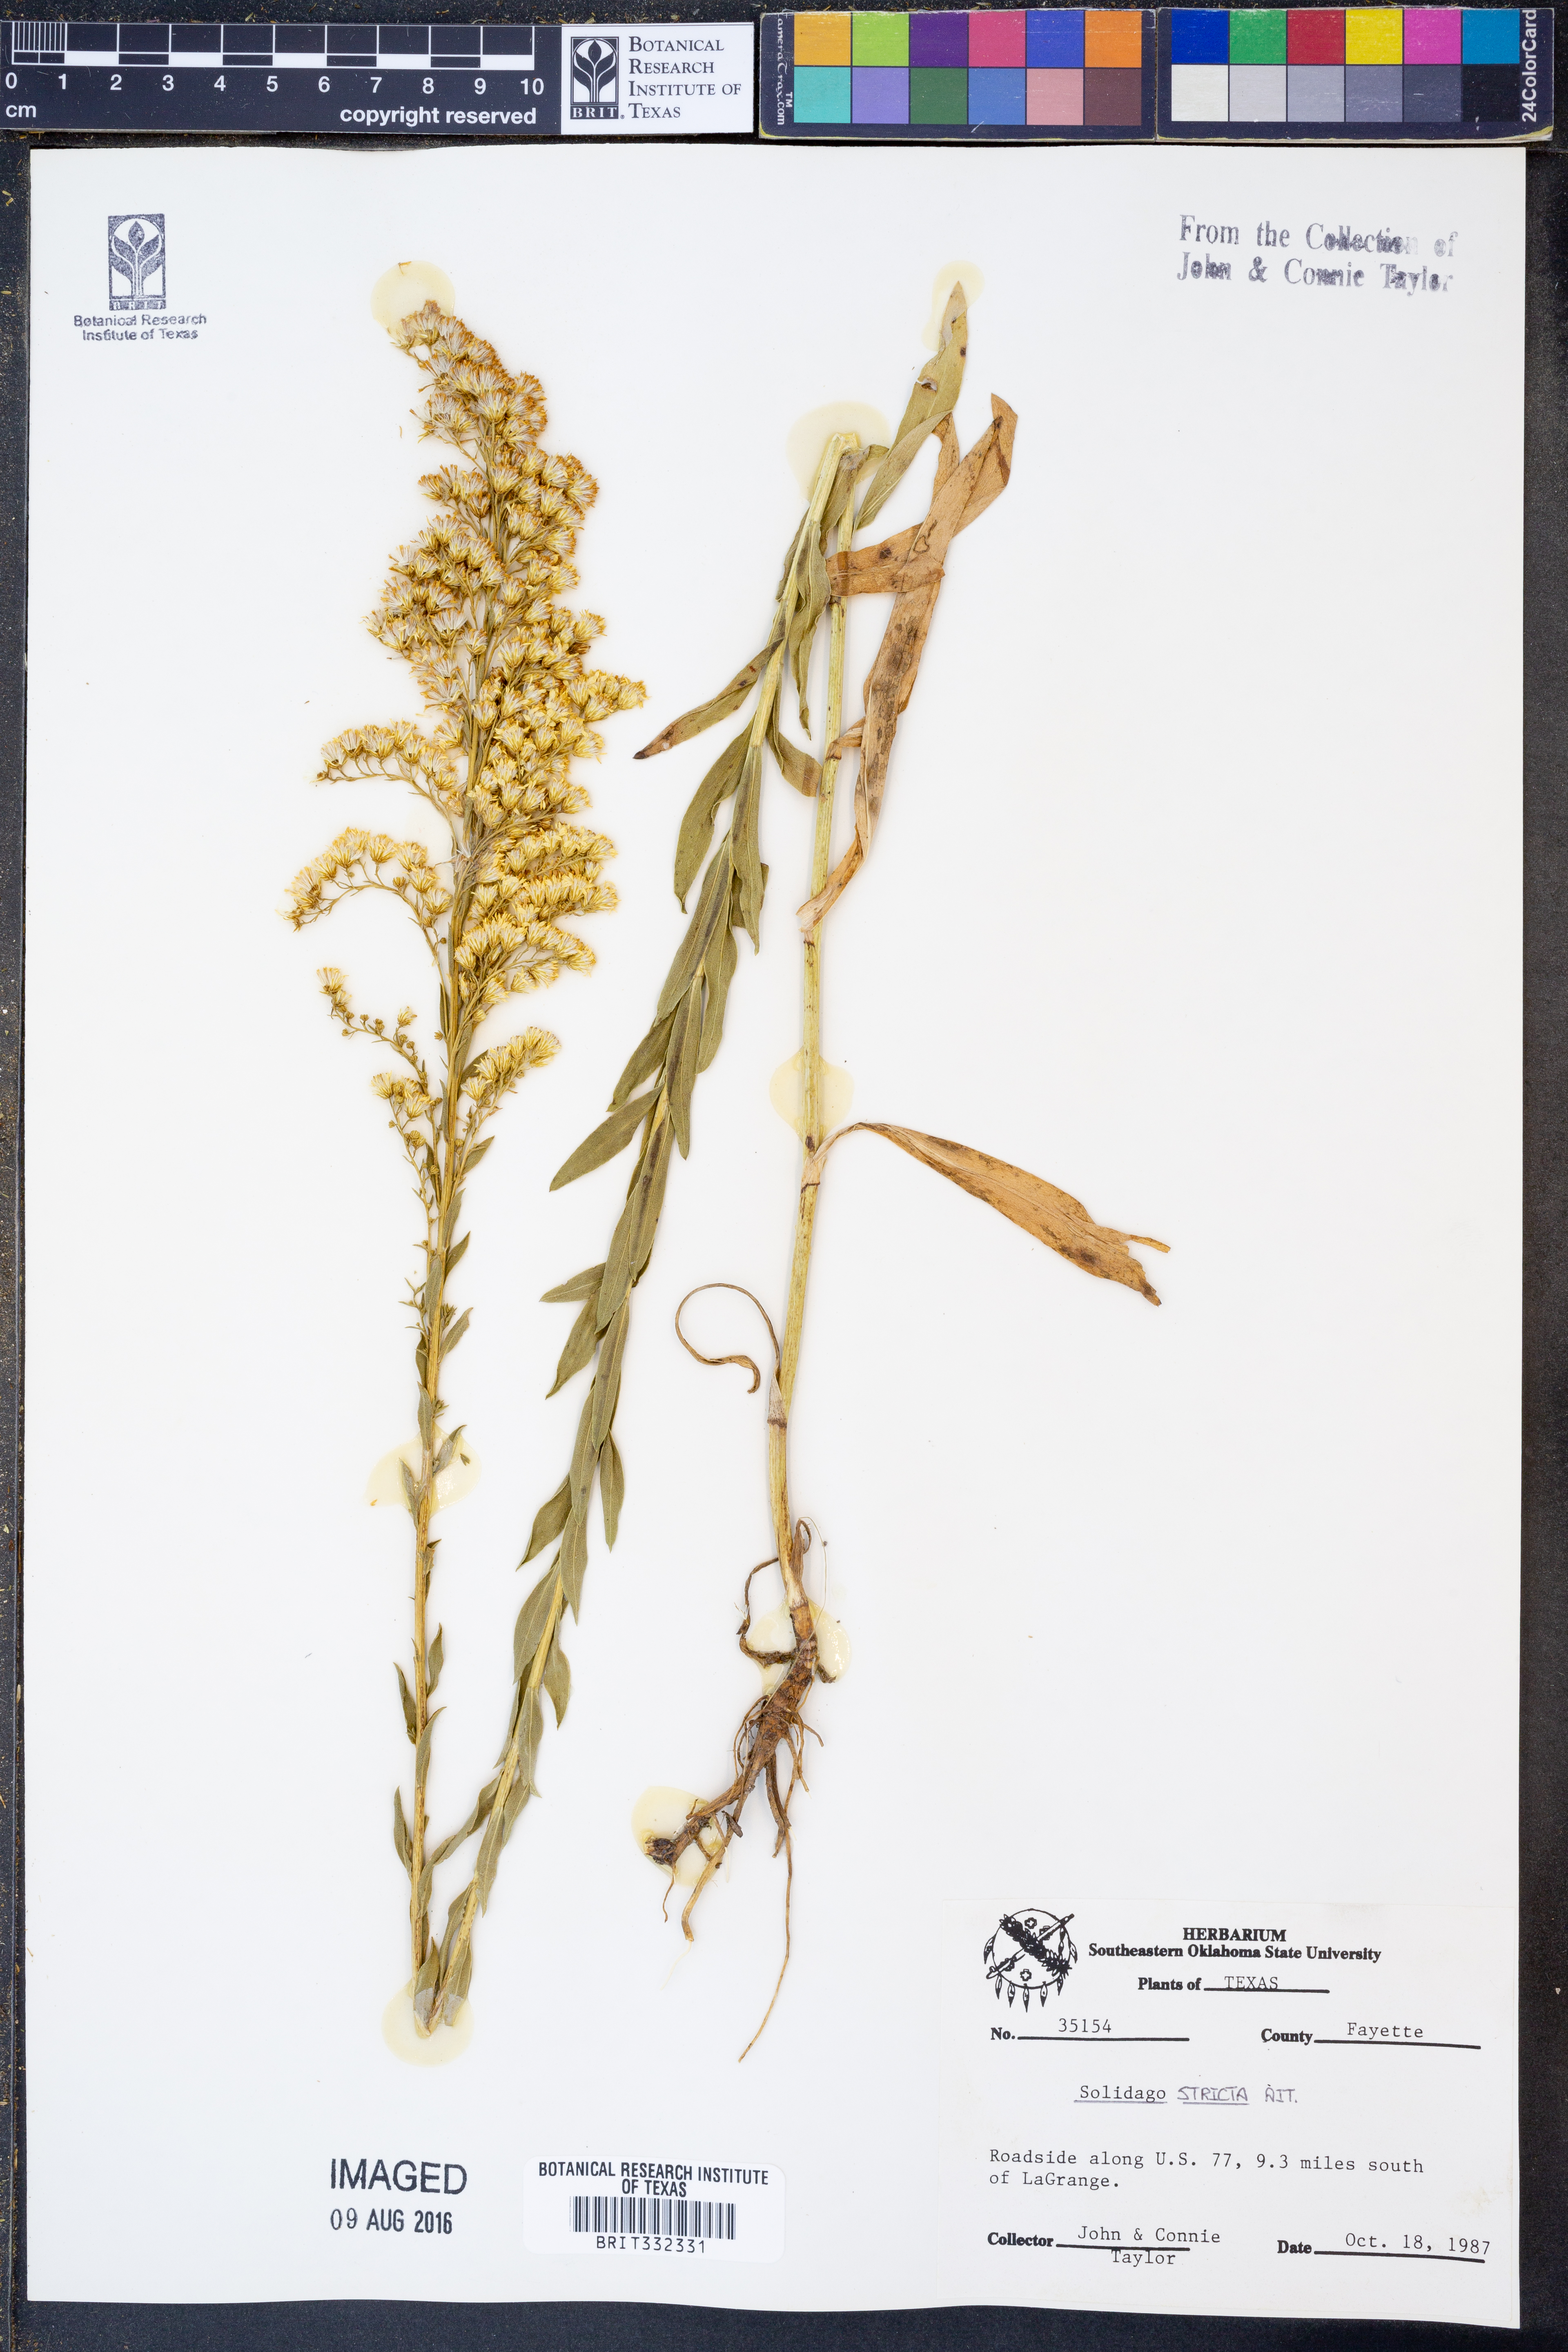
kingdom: Plantae
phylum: Tracheophyta
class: Magnoliopsida
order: Asterales
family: Asteraceae
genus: Solidago
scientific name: Solidago stricta
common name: Pine barren bog goldenrod
